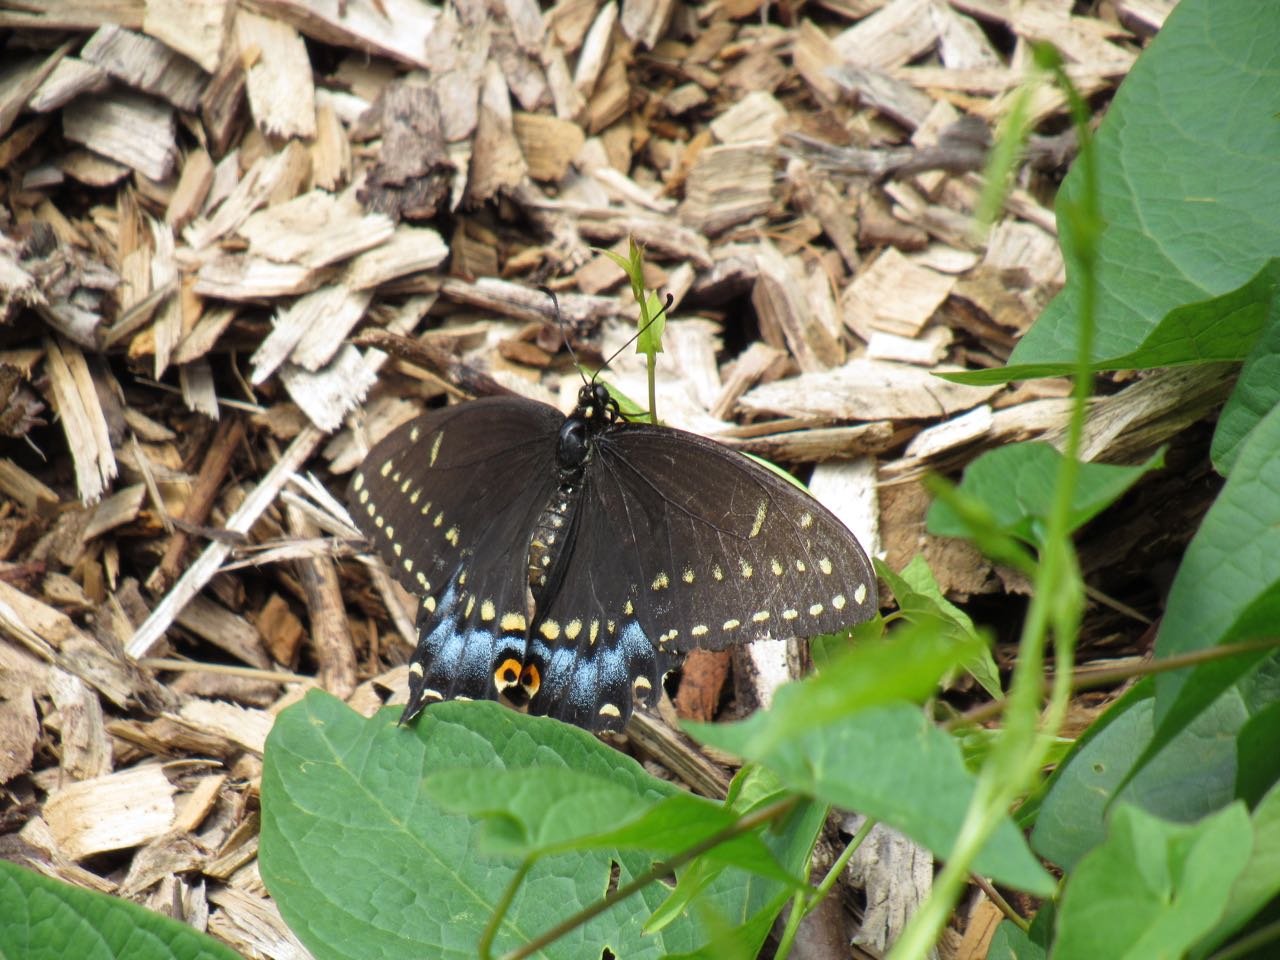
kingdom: Animalia
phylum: Arthropoda
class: Insecta
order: Lepidoptera
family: Papilionidae
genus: Papilio
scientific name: Papilio polyxenes
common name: Black Swallowtail
